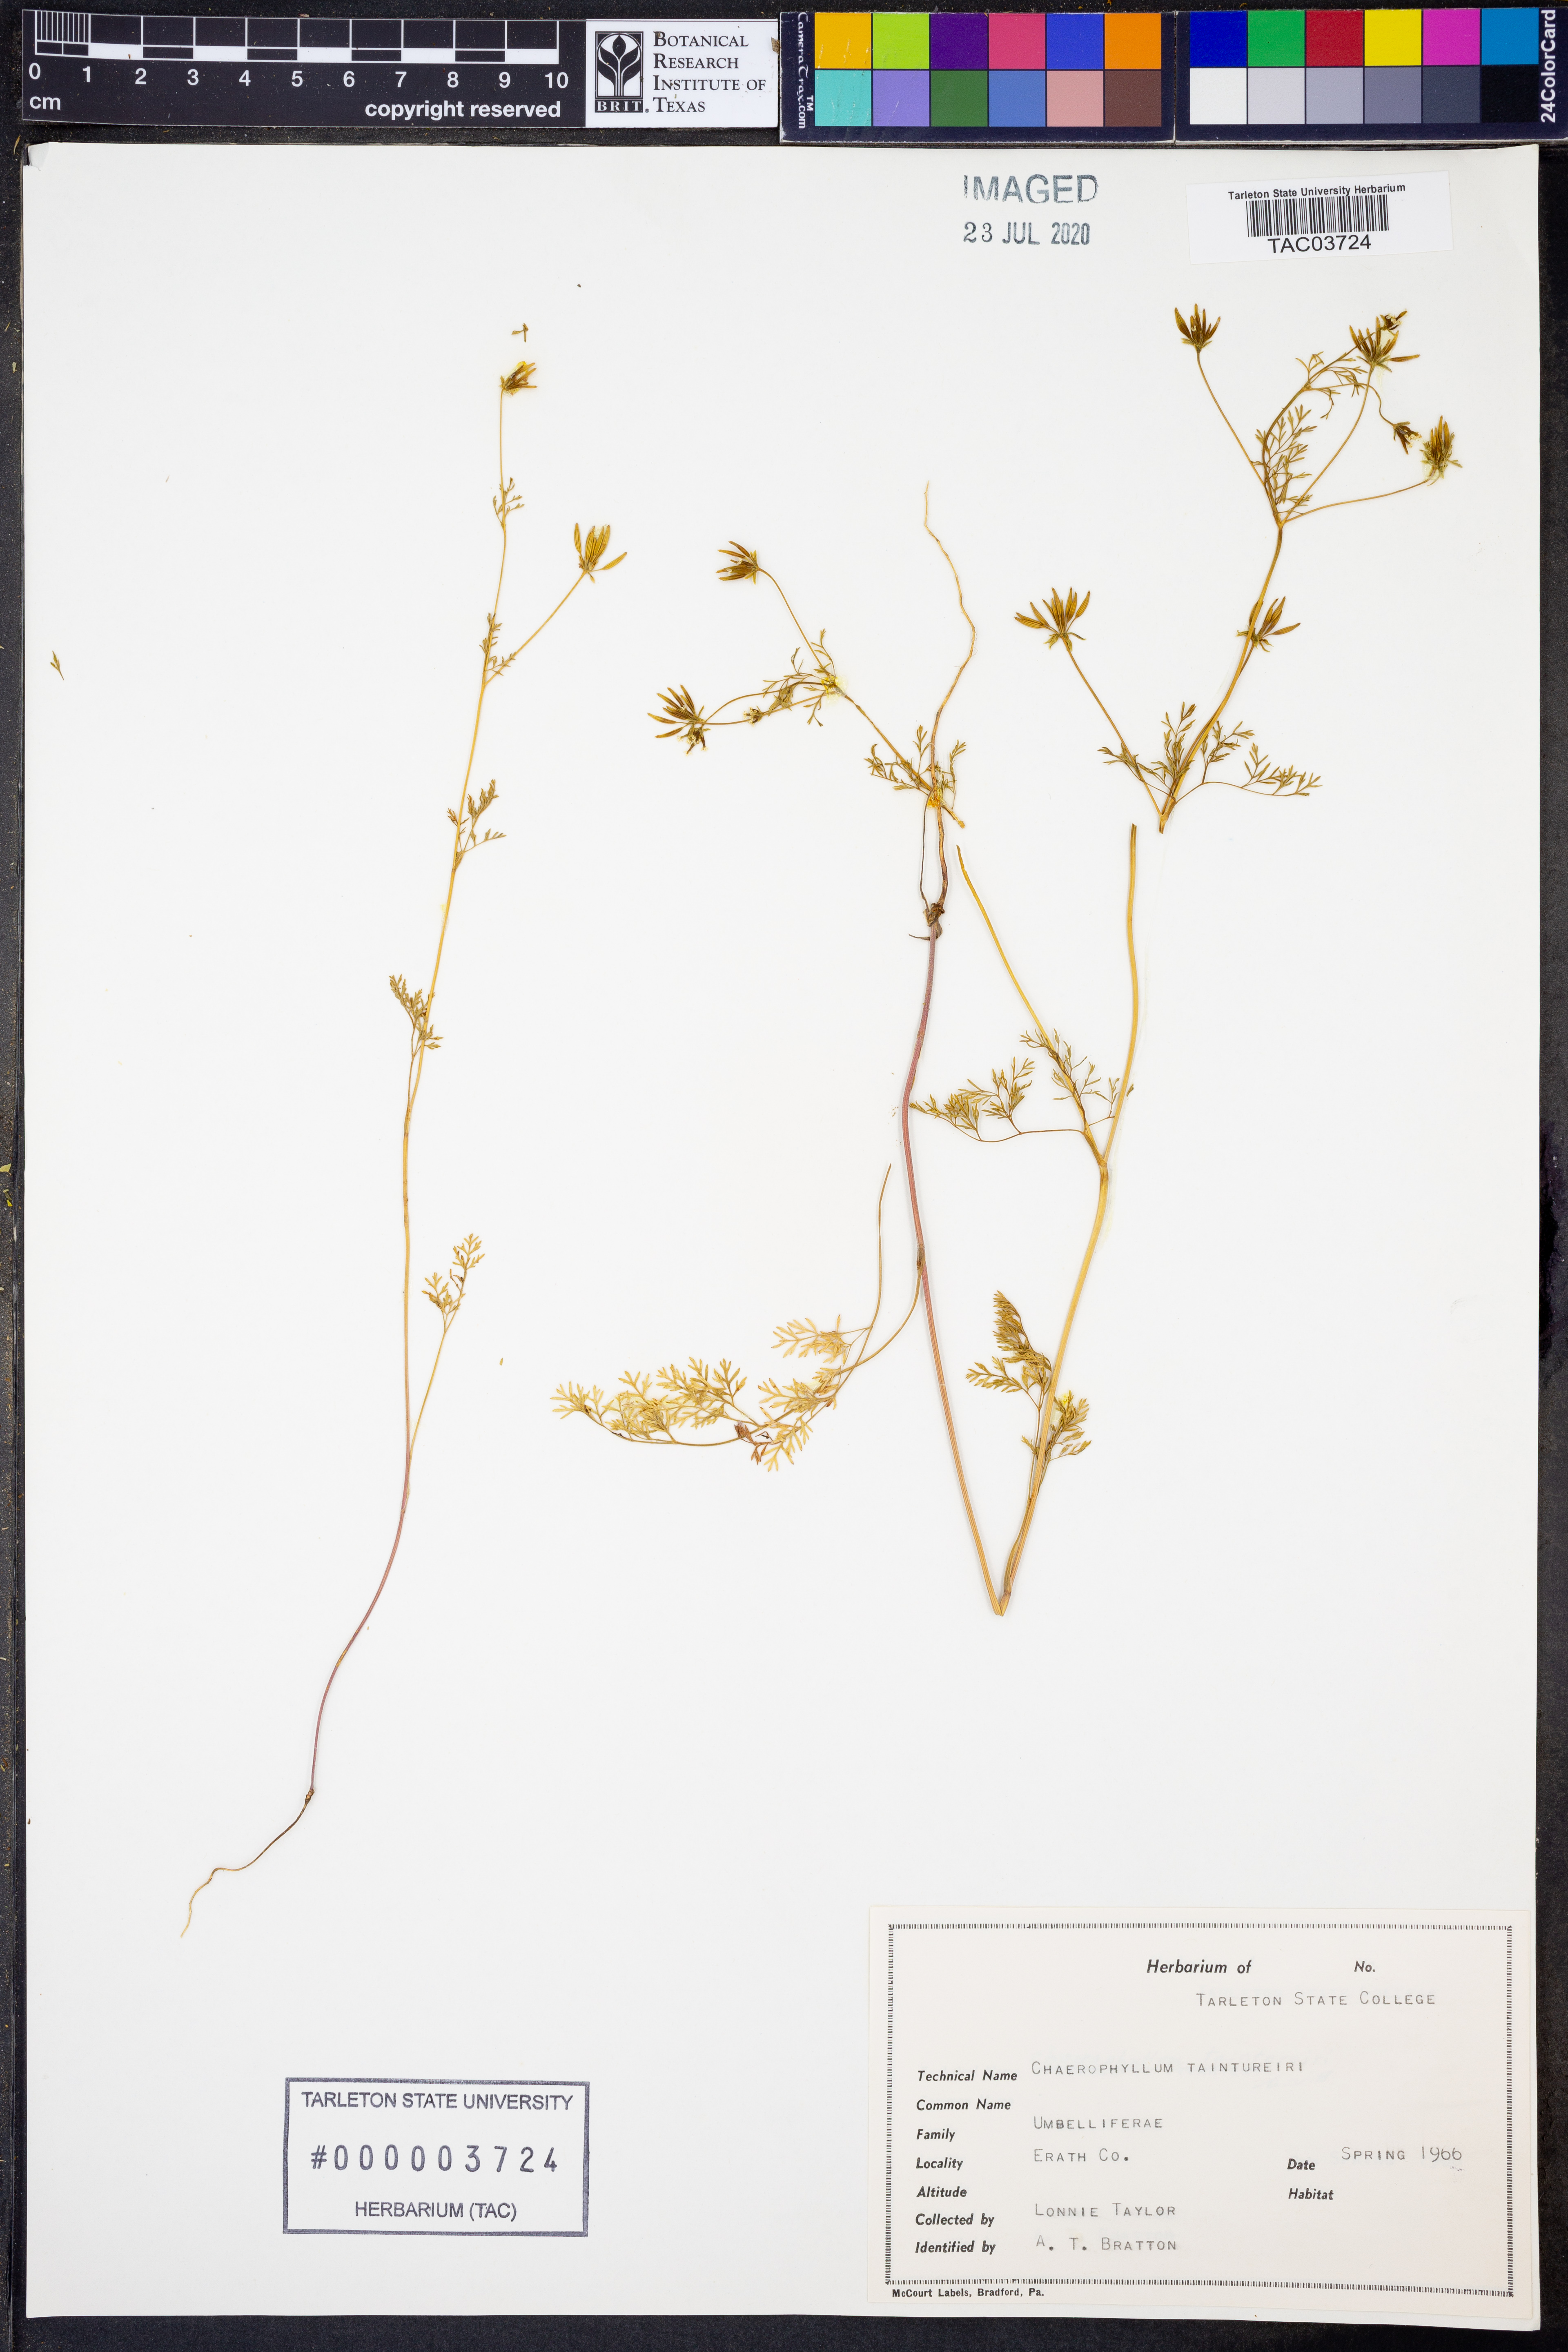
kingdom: Plantae
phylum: Tracheophyta
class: Magnoliopsida
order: Apiales
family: Apiaceae
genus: Chaerophyllum
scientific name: Chaerophyllum tainturieri
